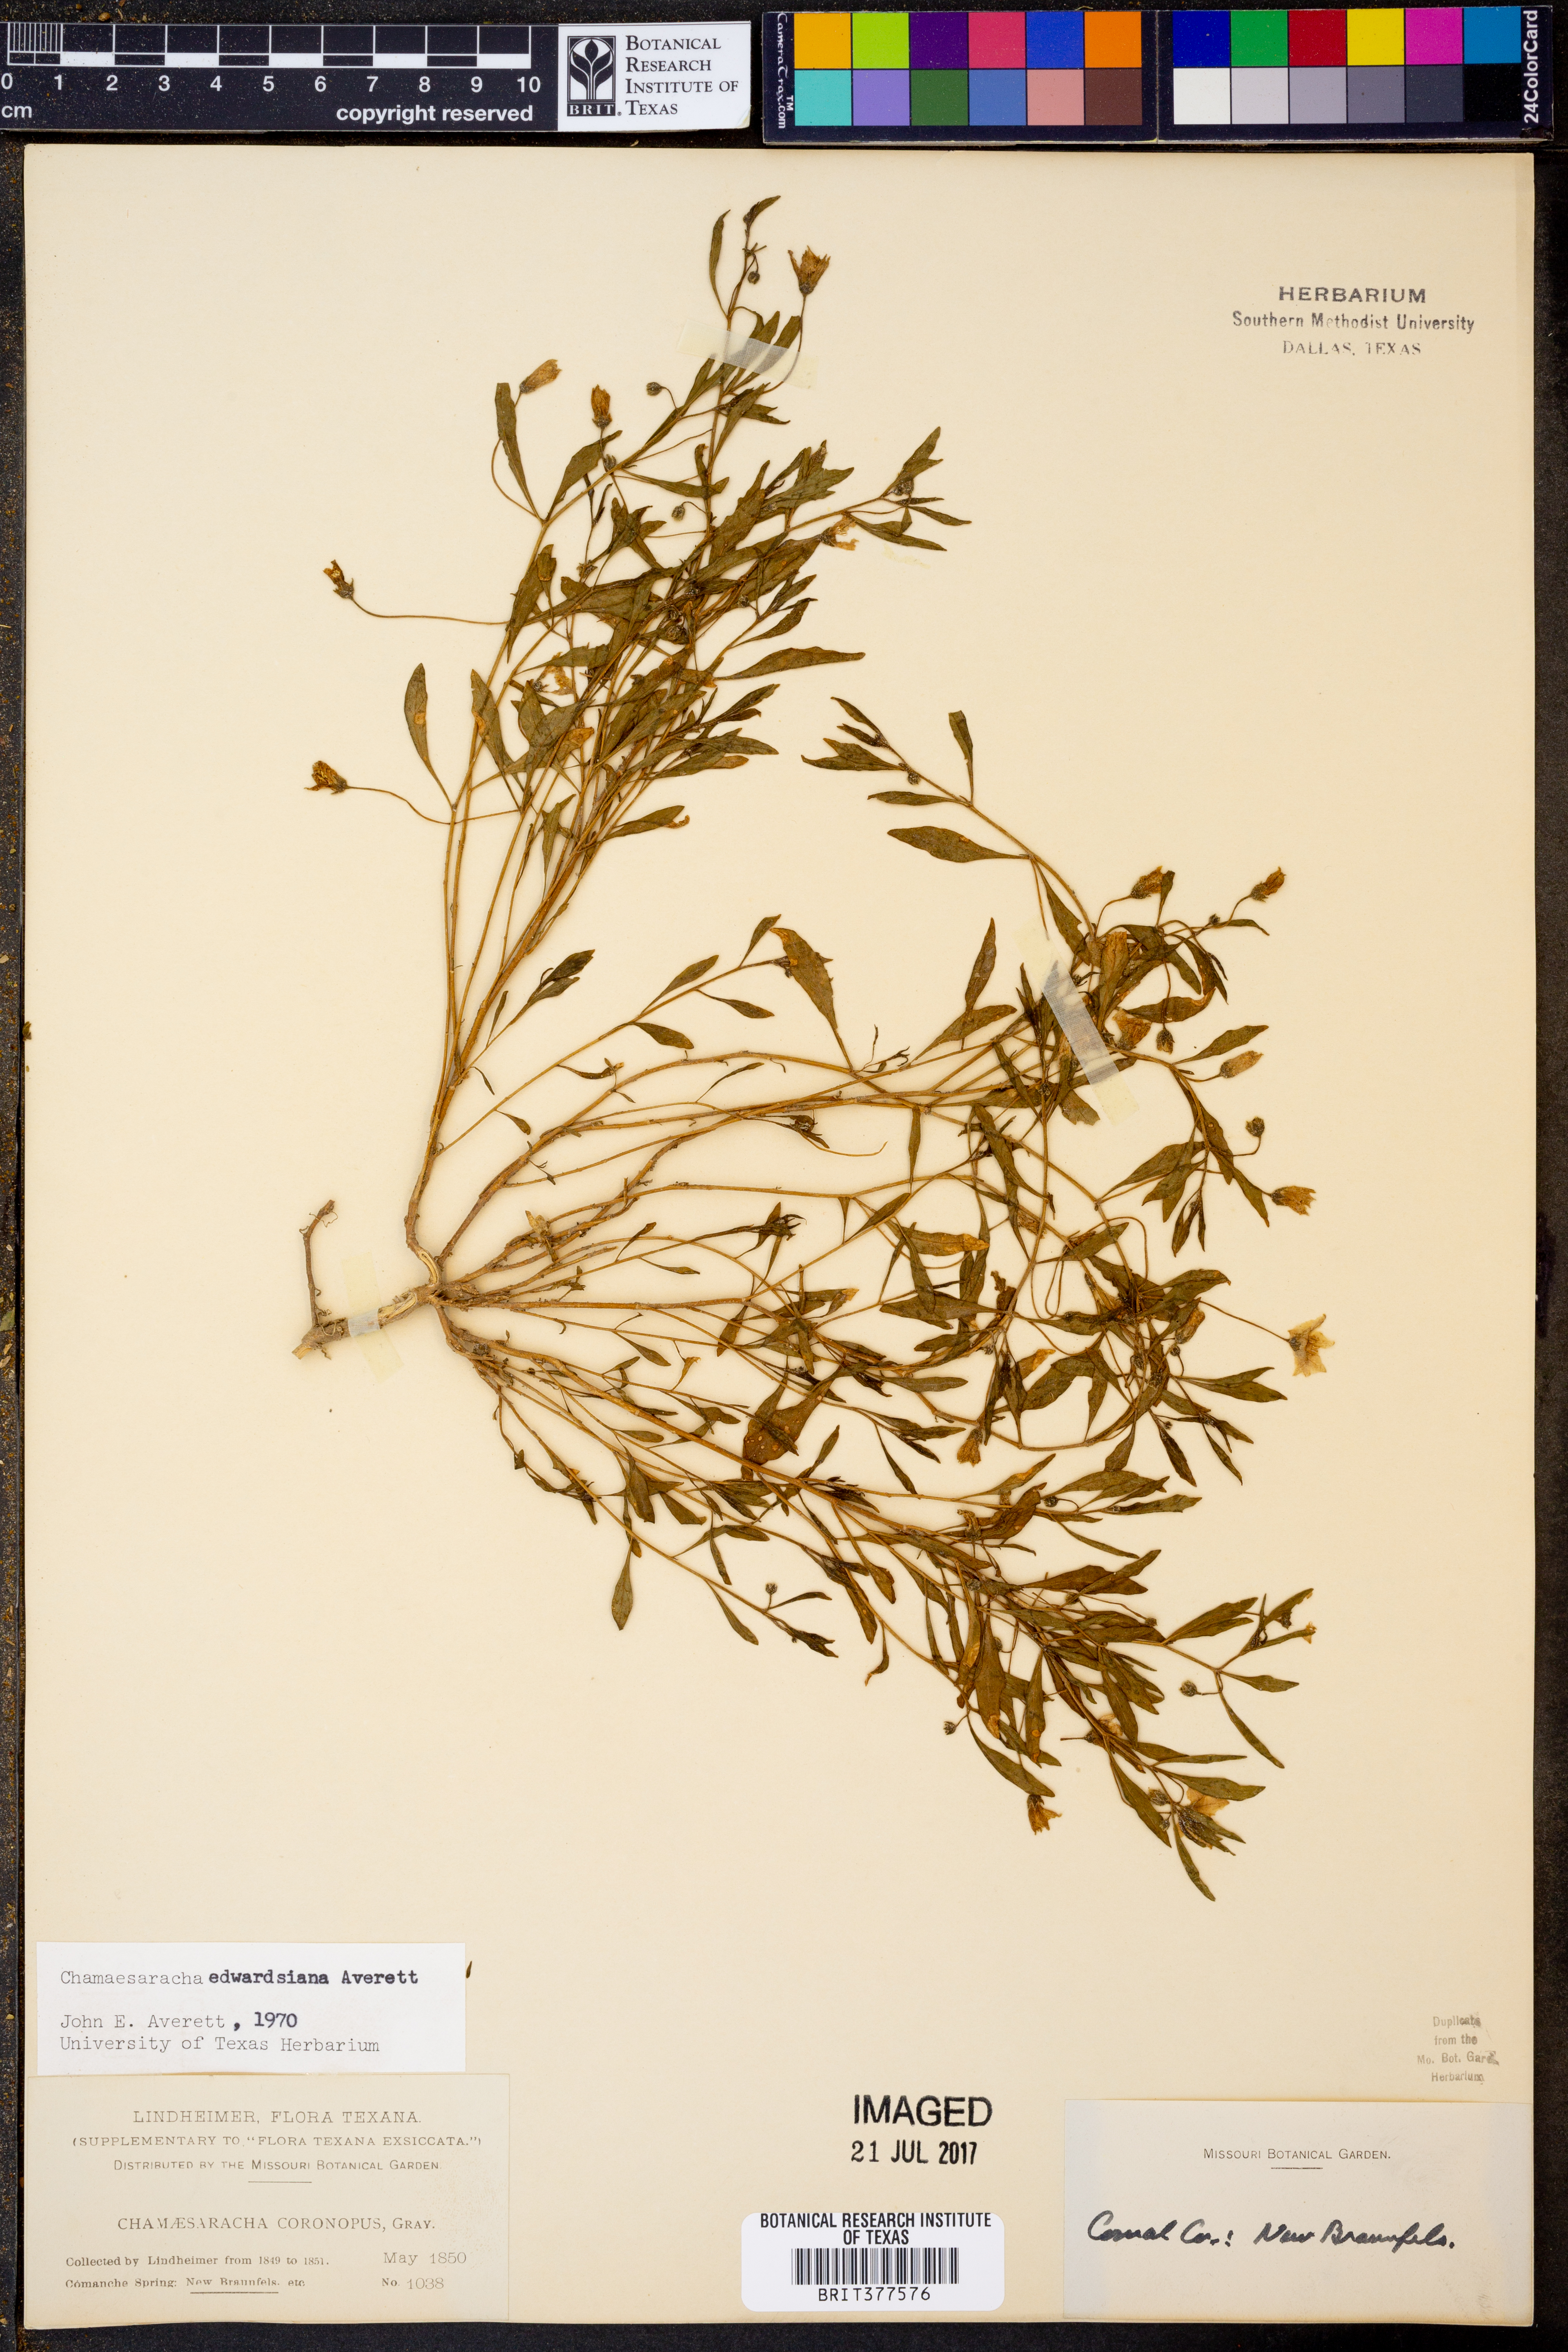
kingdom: Plantae
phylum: Tracheophyta
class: Magnoliopsida
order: Solanales
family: Solanaceae
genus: Chamaesaracha
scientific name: Chamaesaracha edwardsiana
